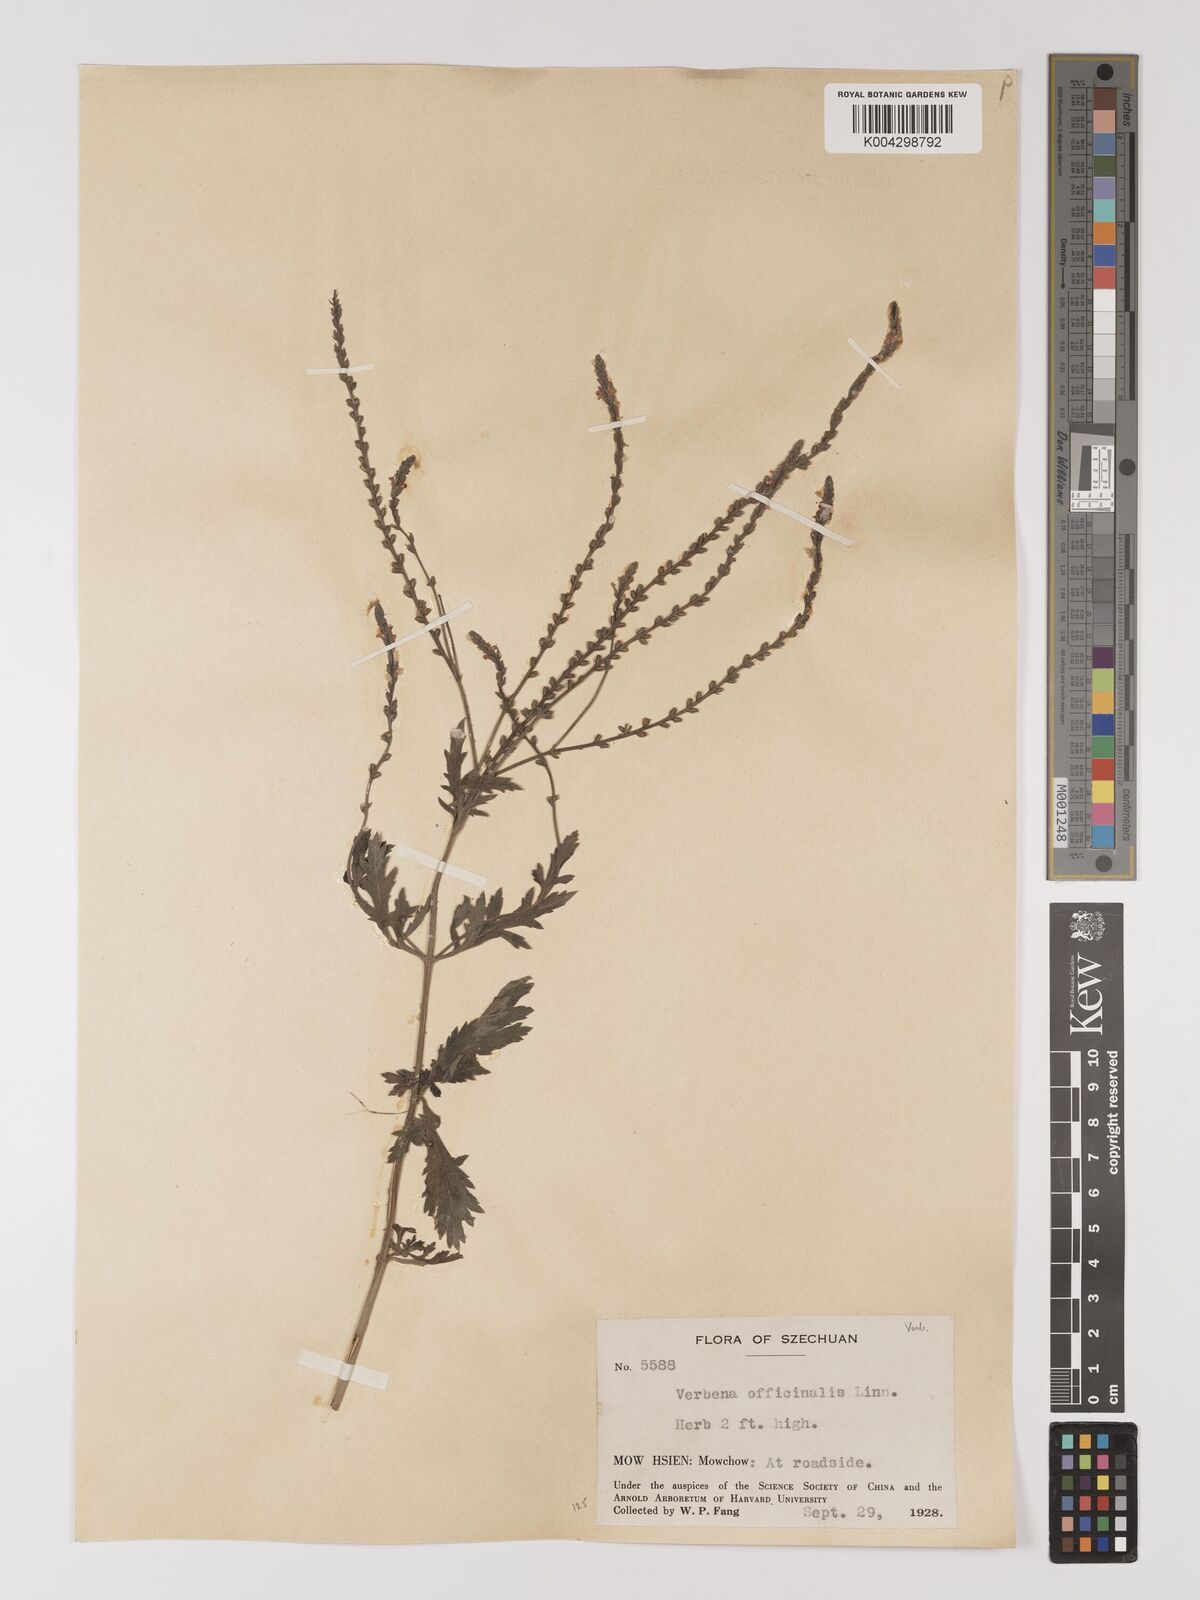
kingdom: Plantae
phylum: Tracheophyta
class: Magnoliopsida
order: Lamiales
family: Verbenaceae
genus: Verbena
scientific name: Verbena officinalis
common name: Vervain
